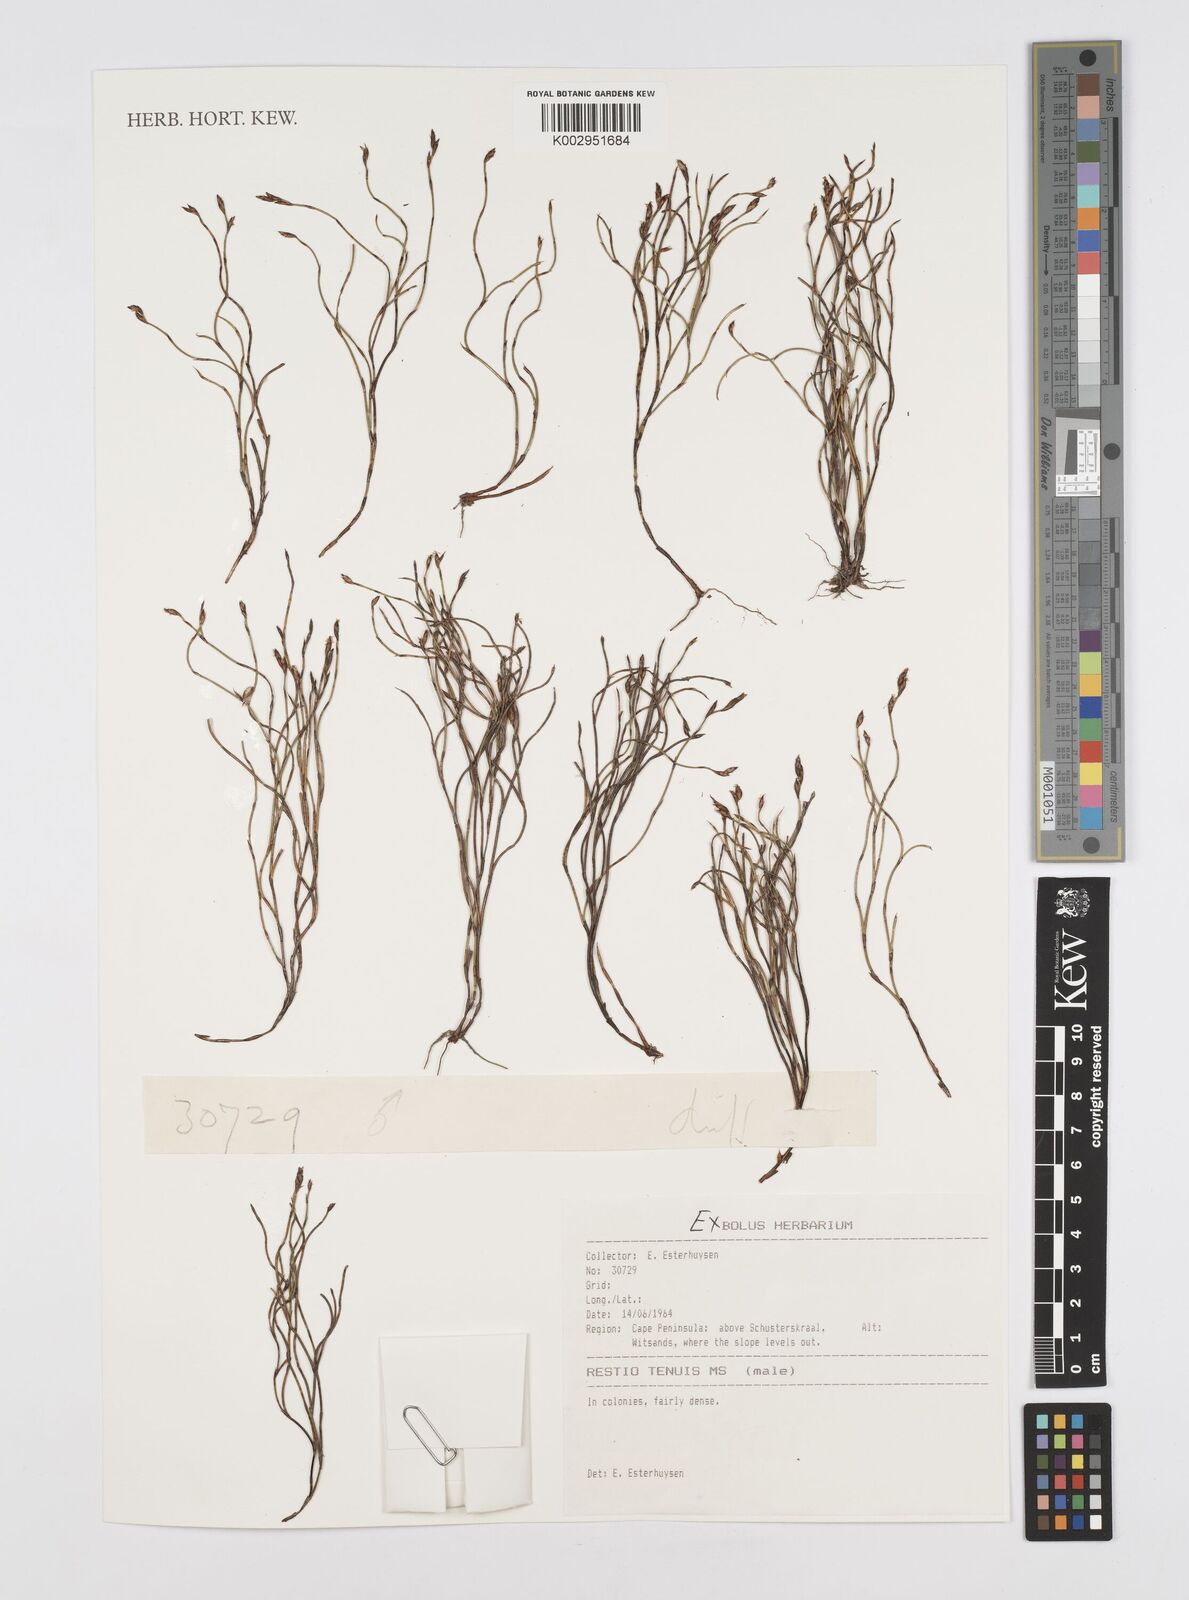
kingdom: Plantae
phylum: Tracheophyta
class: Liliopsida
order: Poales
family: Restionaceae
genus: Restio
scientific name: Restio
